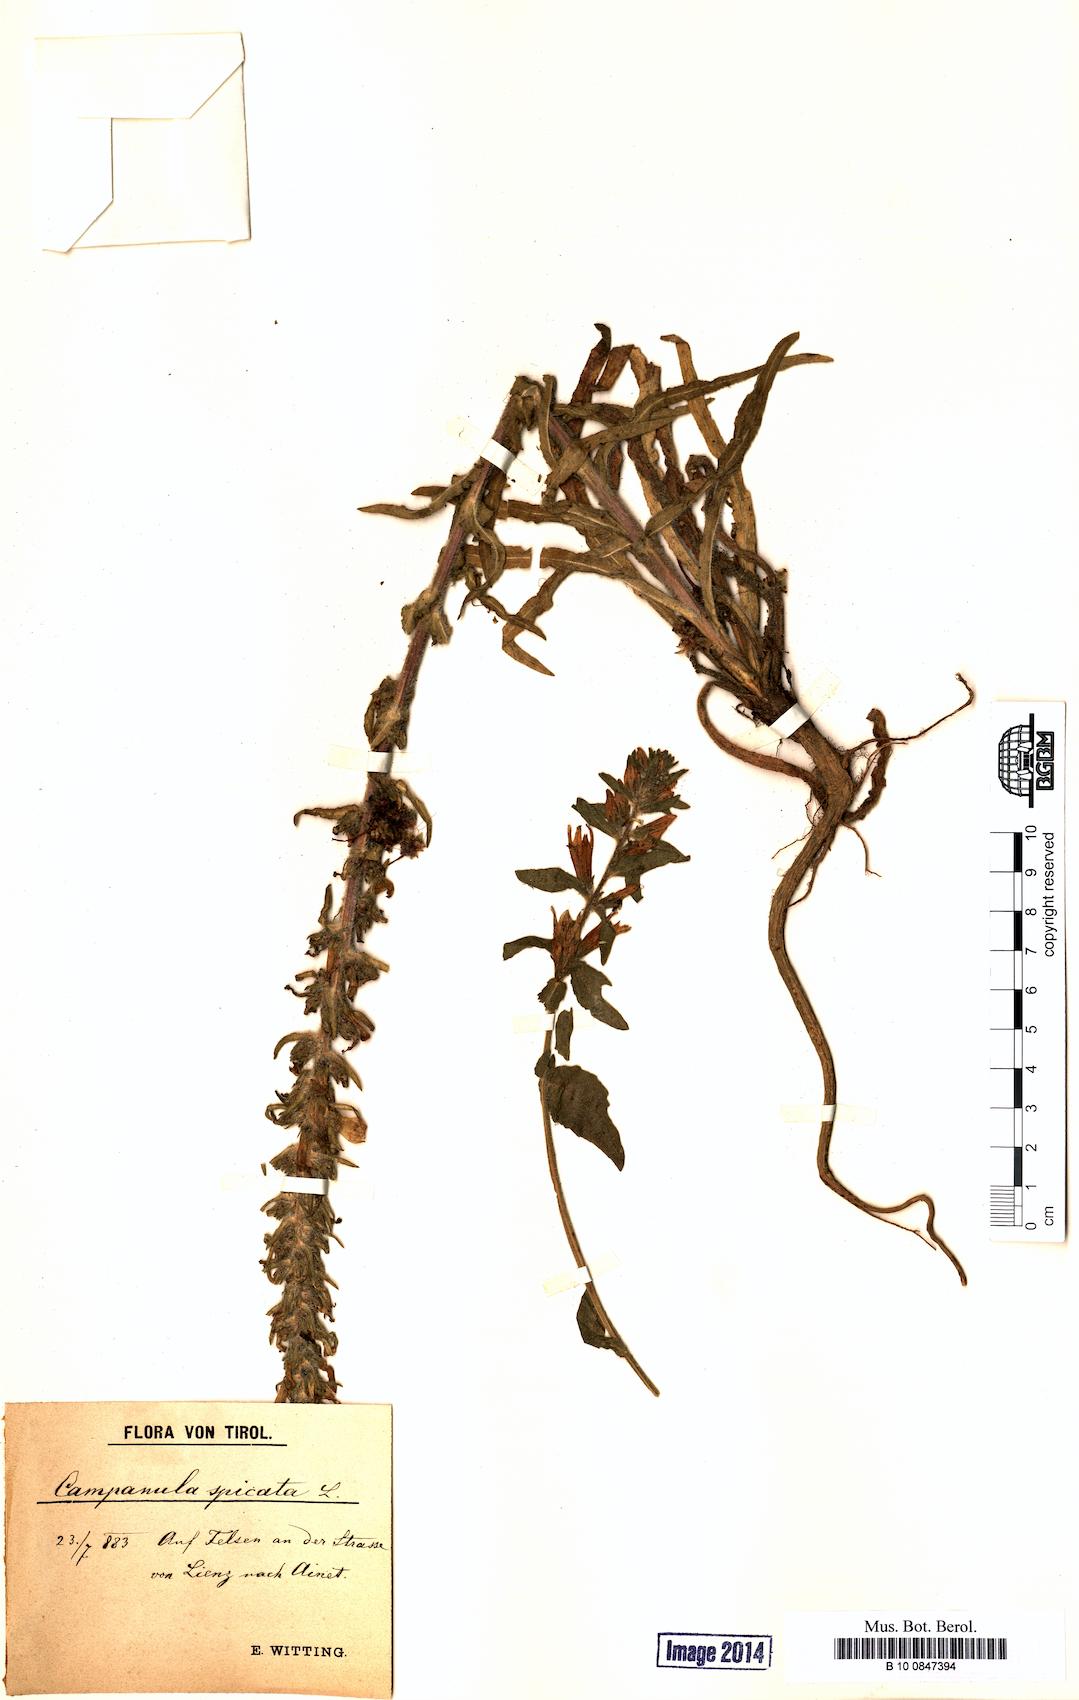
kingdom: Plantae
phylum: Tracheophyta
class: Magnoliopsida
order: Asterales
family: Campanulaceae
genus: Campanula
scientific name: Campanula spicata
